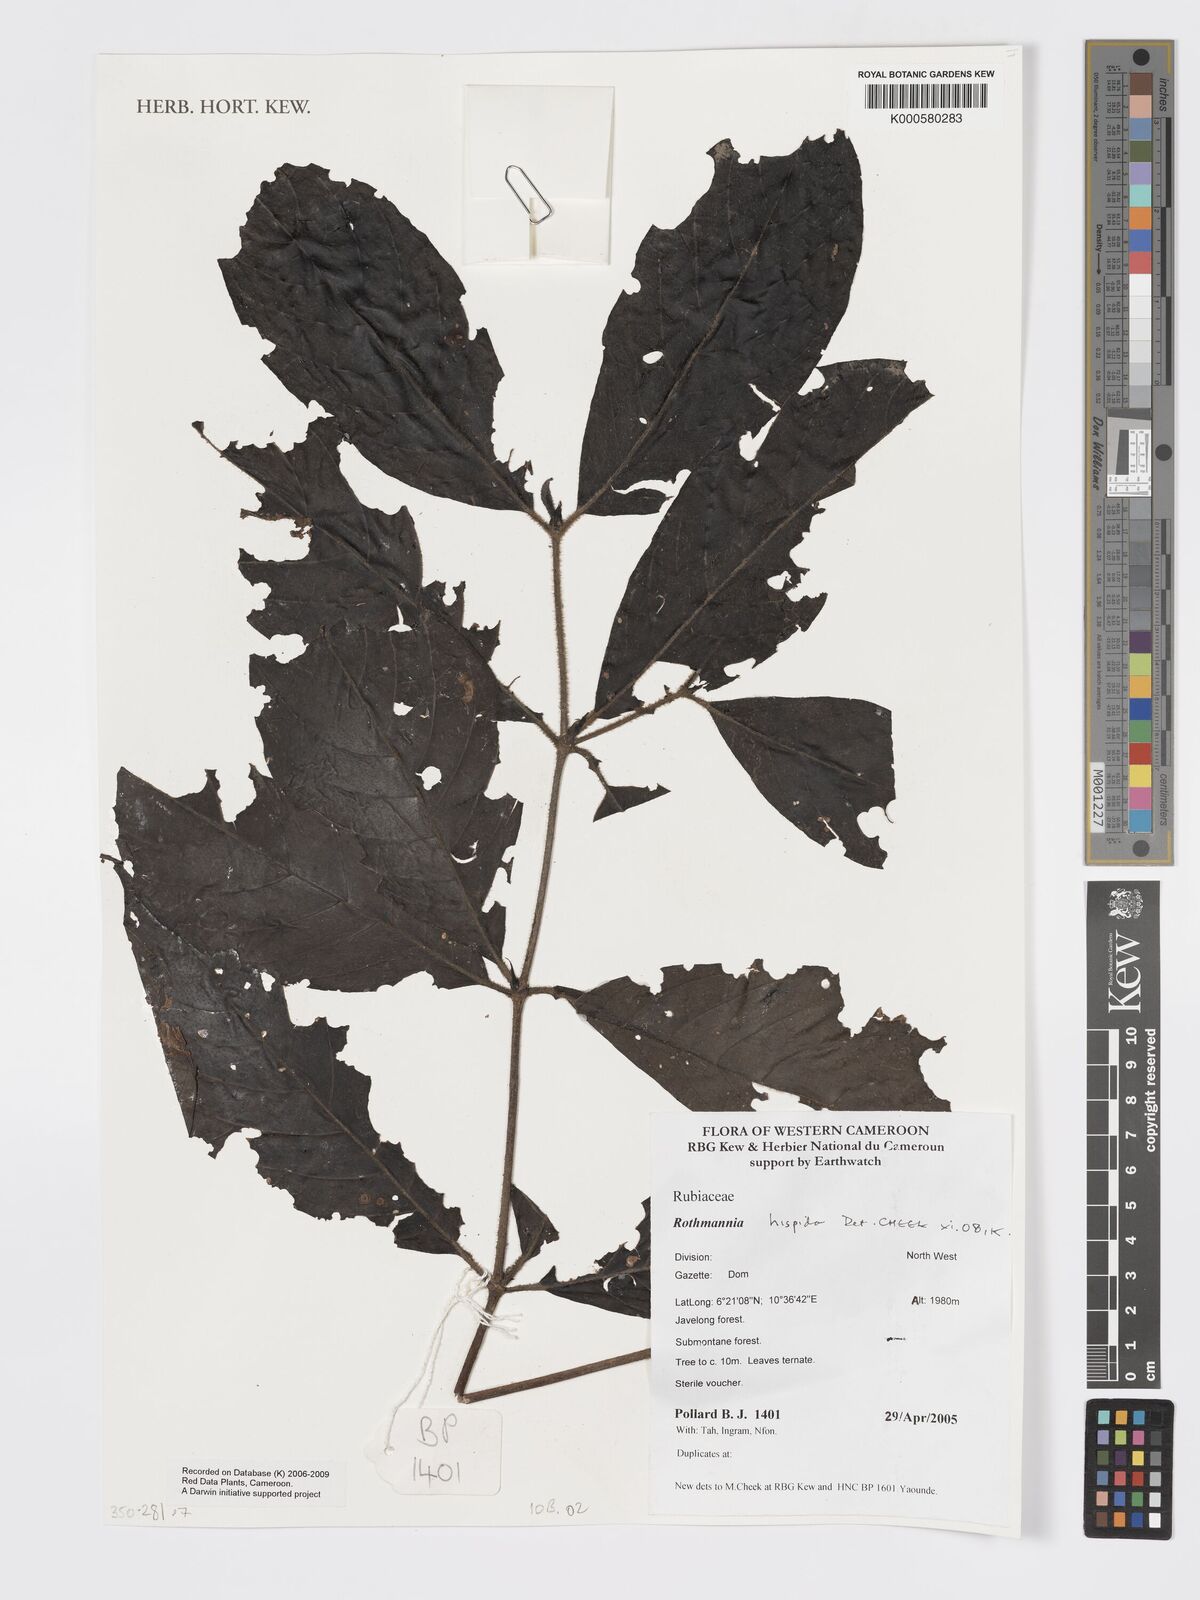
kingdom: Plantae
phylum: Tracheophyta
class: Magnoliopsida
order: Gentianales
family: Rubiaceae
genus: Rothmannia
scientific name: Rothmannia hispida
